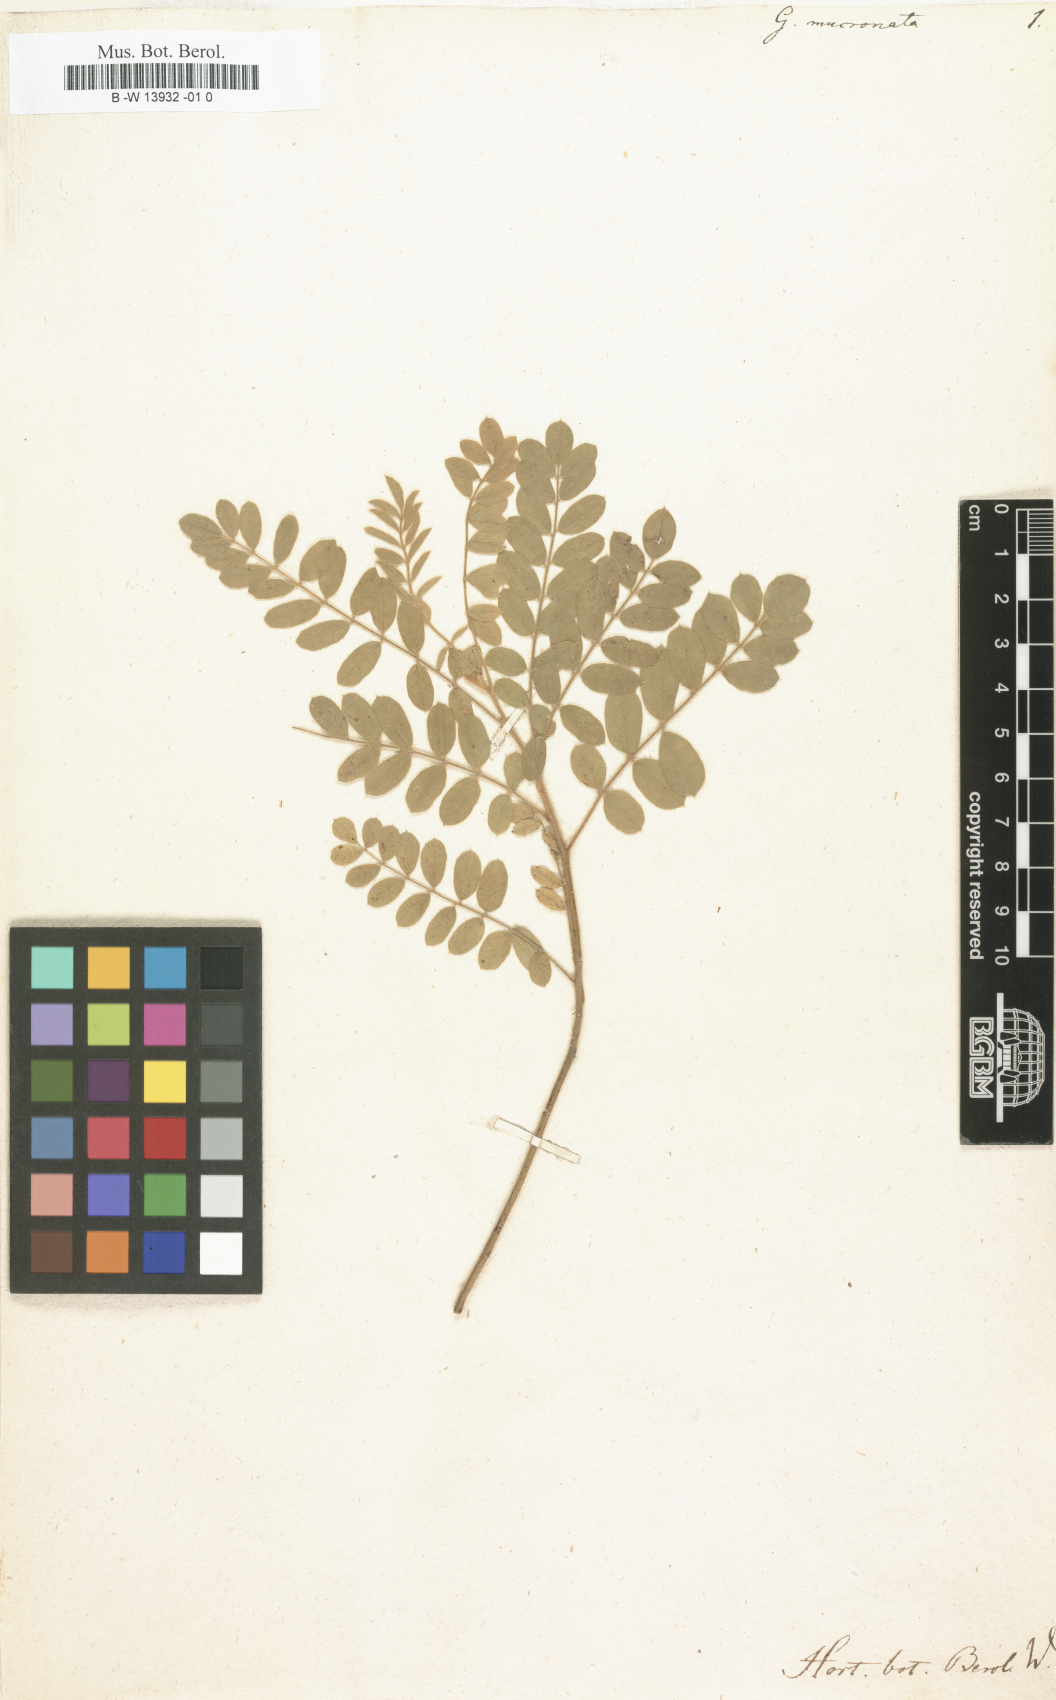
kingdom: Plantae
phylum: Tracheophyta
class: Magnoliopsida
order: Fabales
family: Fabaceae
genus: Galega
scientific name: Galega mucronata
